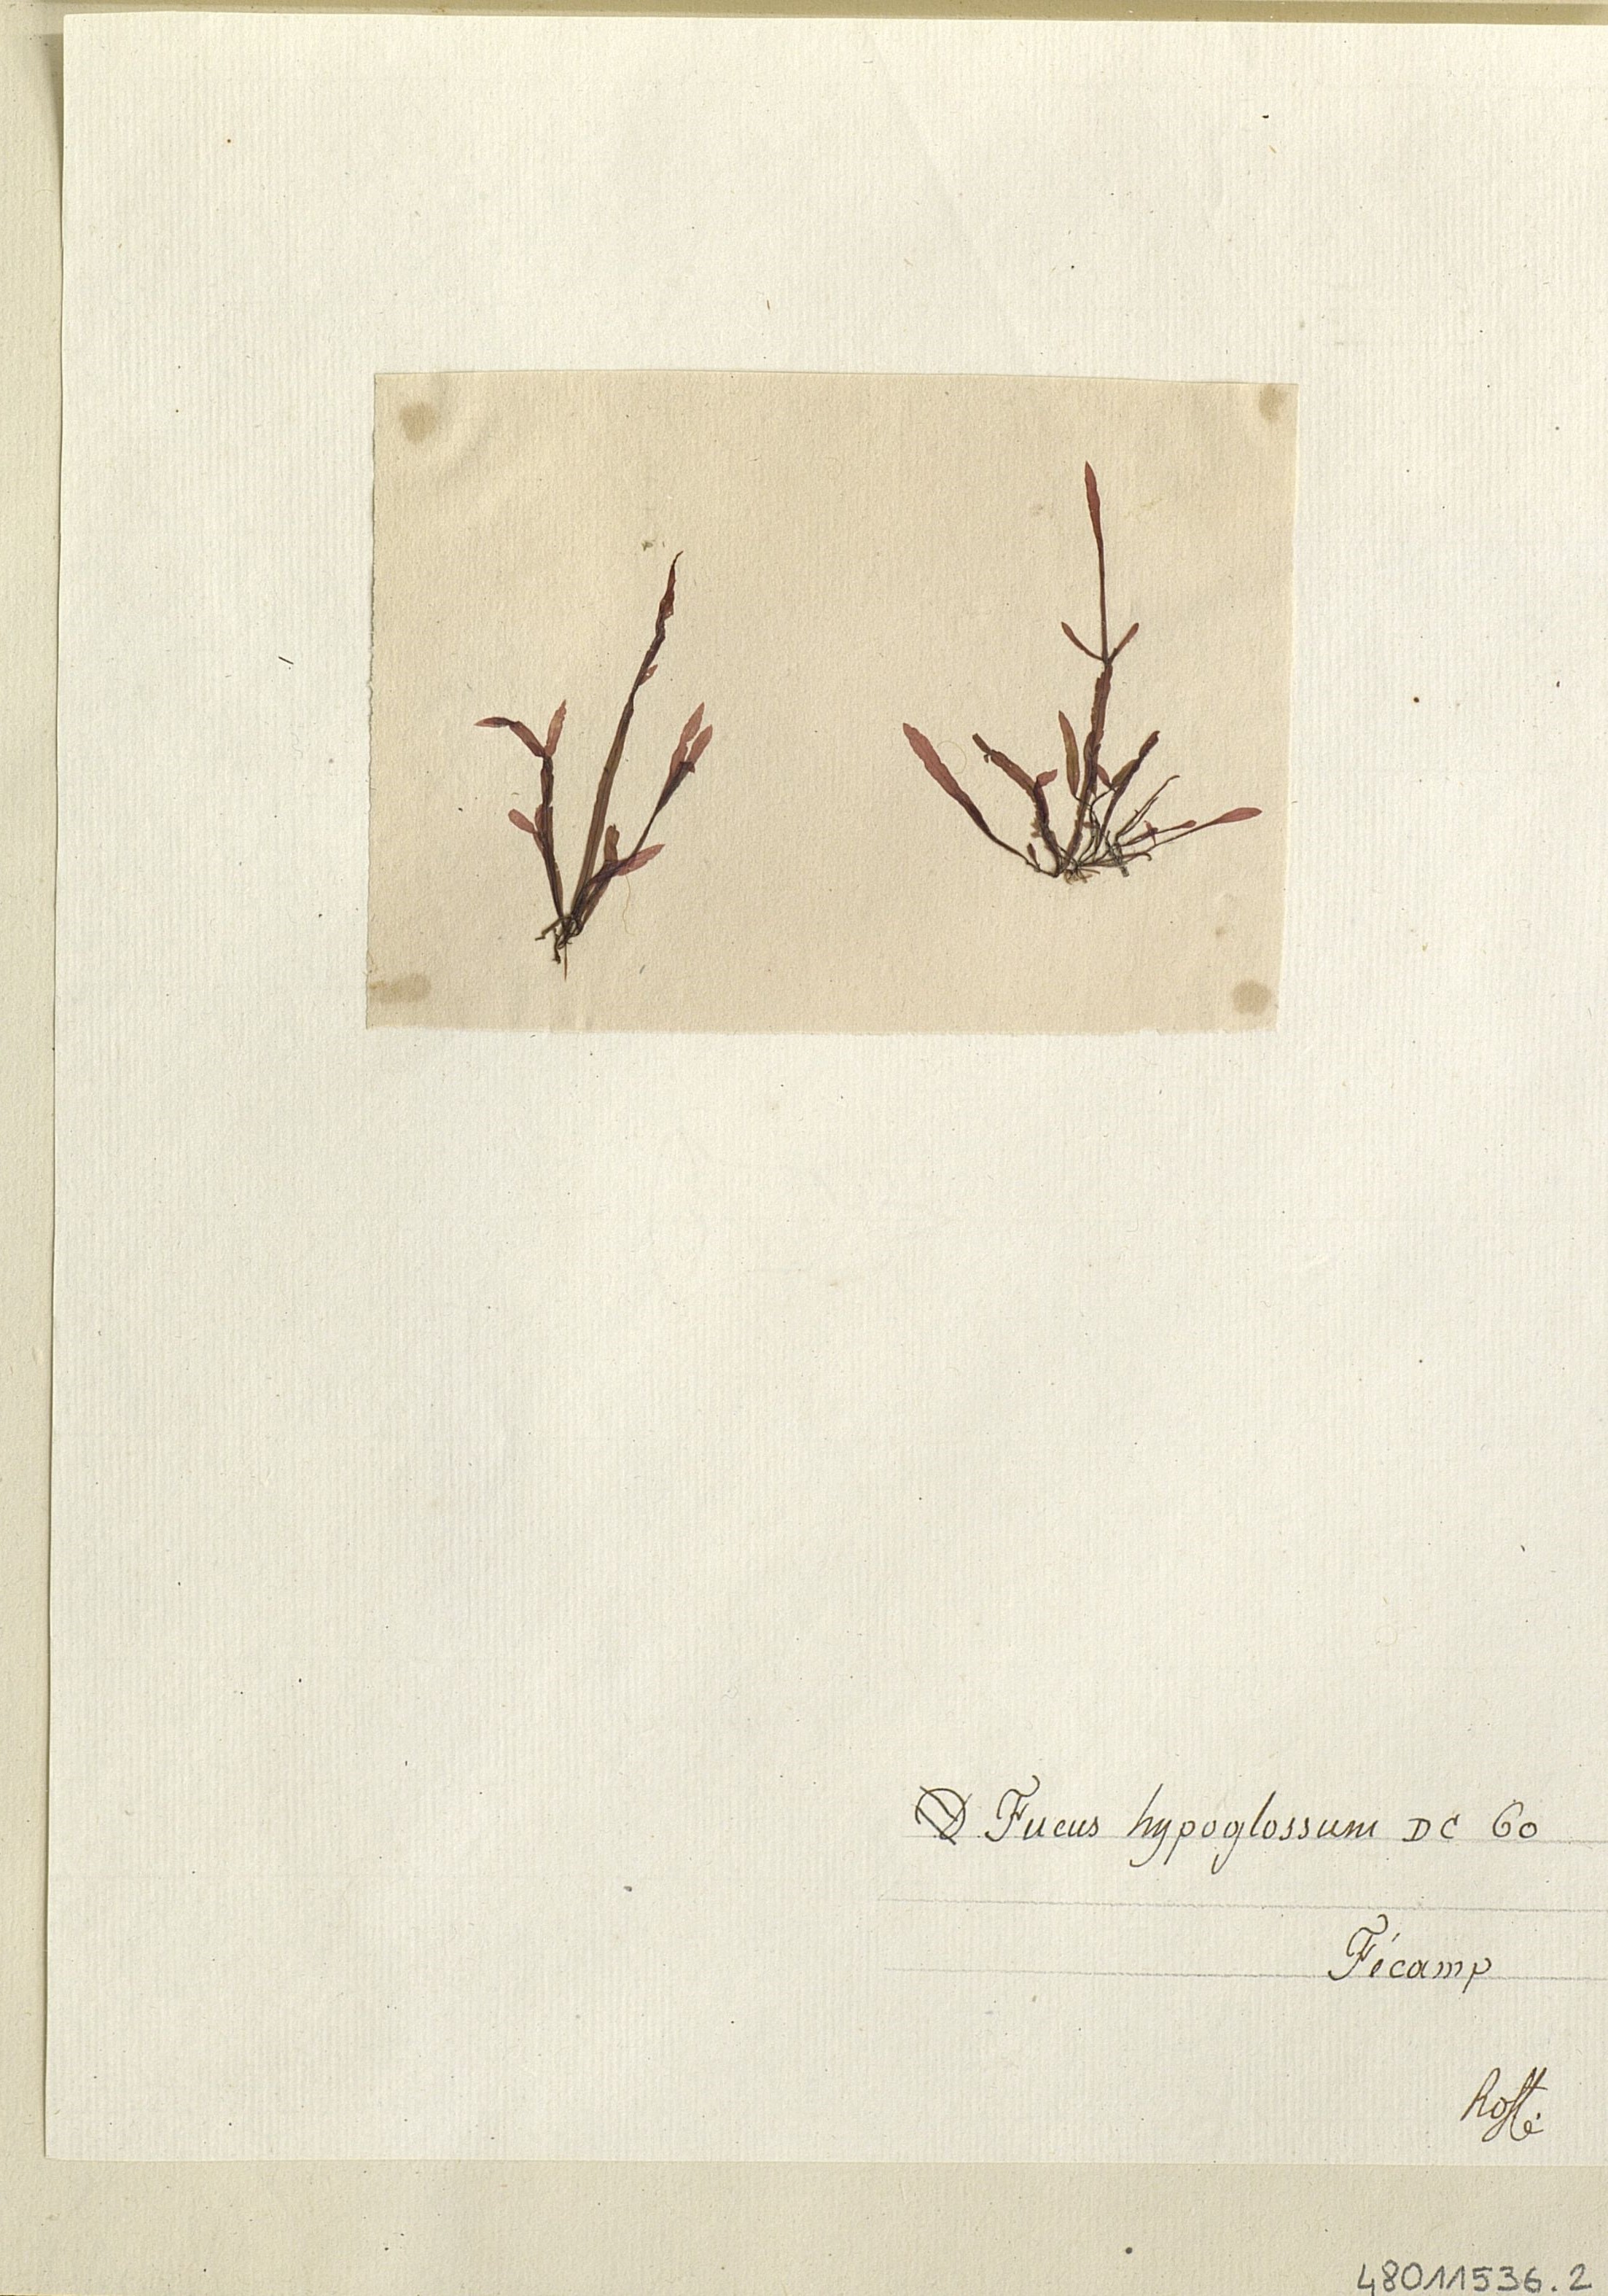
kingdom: Chromista
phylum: Ochrophyta
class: Phaeophyceae
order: Fucales
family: Fucaceae
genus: Fucus
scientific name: Fucus
